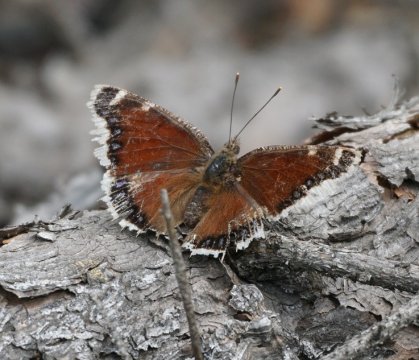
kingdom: Animalia
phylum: Arthropoda
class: Insecta
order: Lepidoptera
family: Nymphalidae
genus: Nymphalis
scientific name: Nymphalis antiopa
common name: Mourning Cloak
